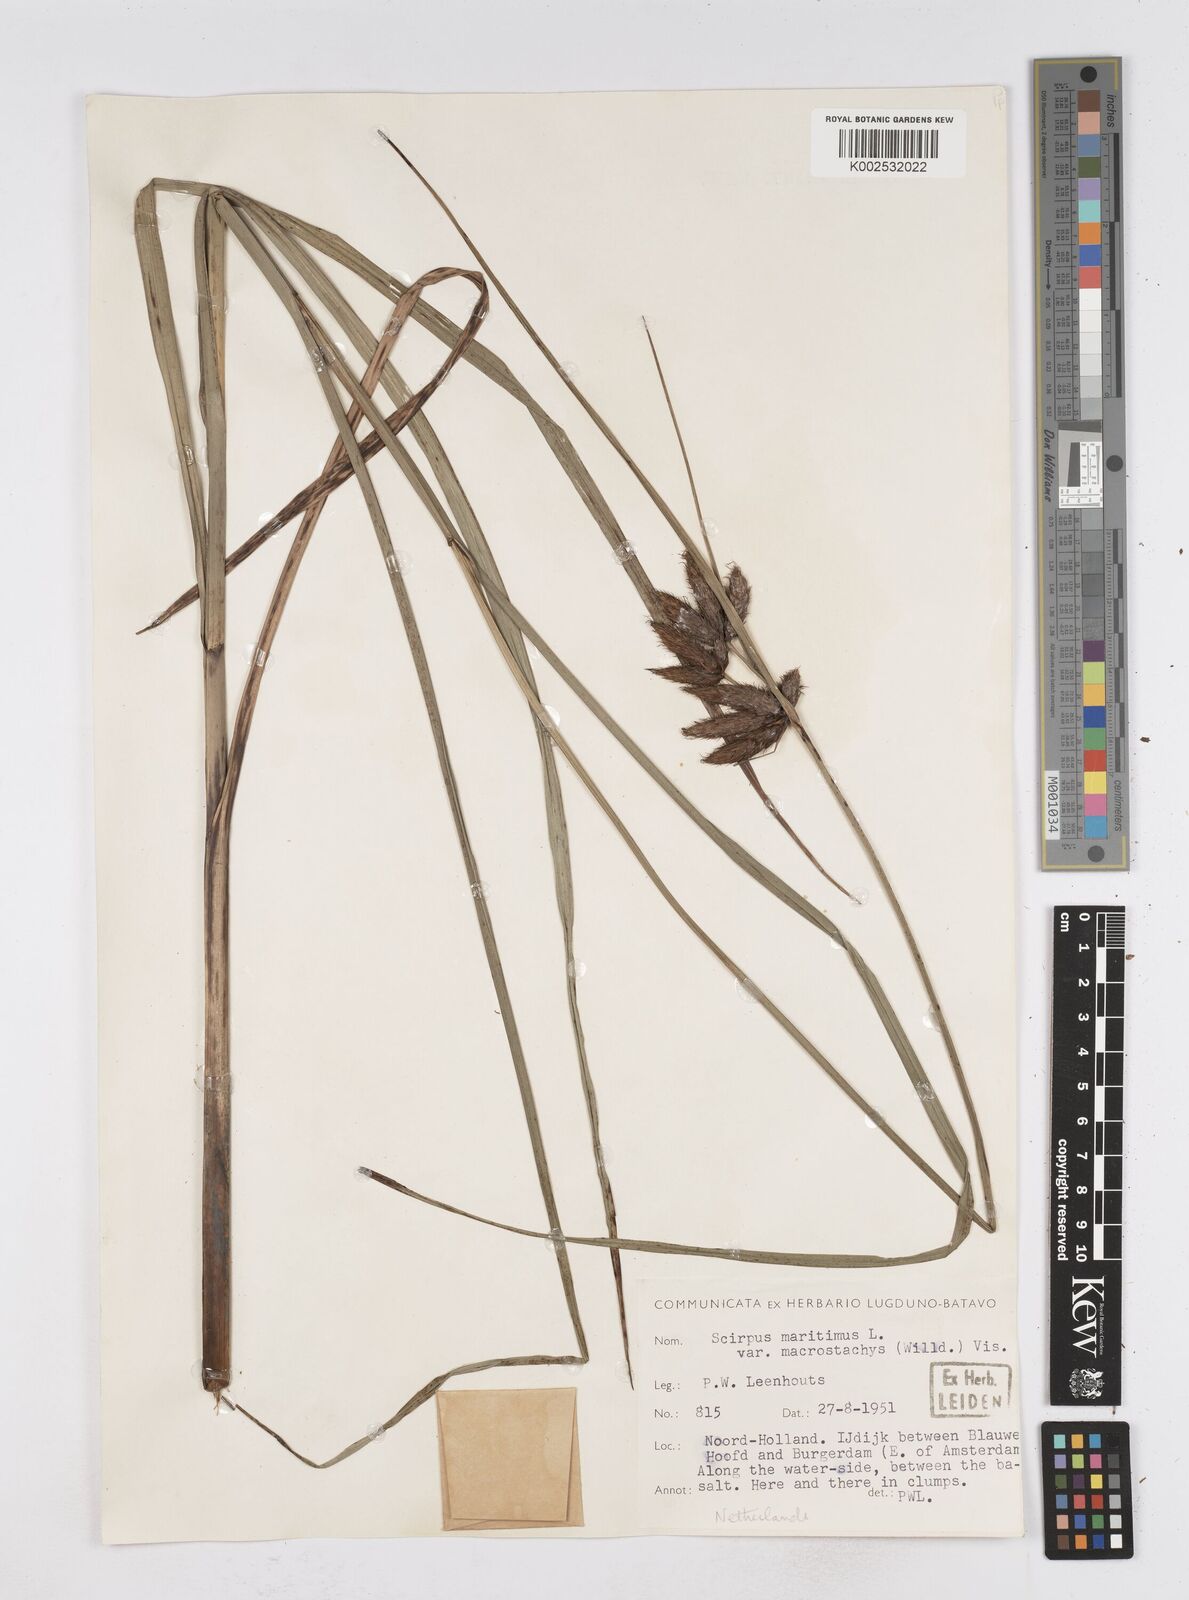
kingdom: Plantae
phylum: Tracheophyta
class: Liliopsida
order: Poales
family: Cyperaceae
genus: Bolboschoenus
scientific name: Bolboschoenus maritimus
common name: Sea club-rush
